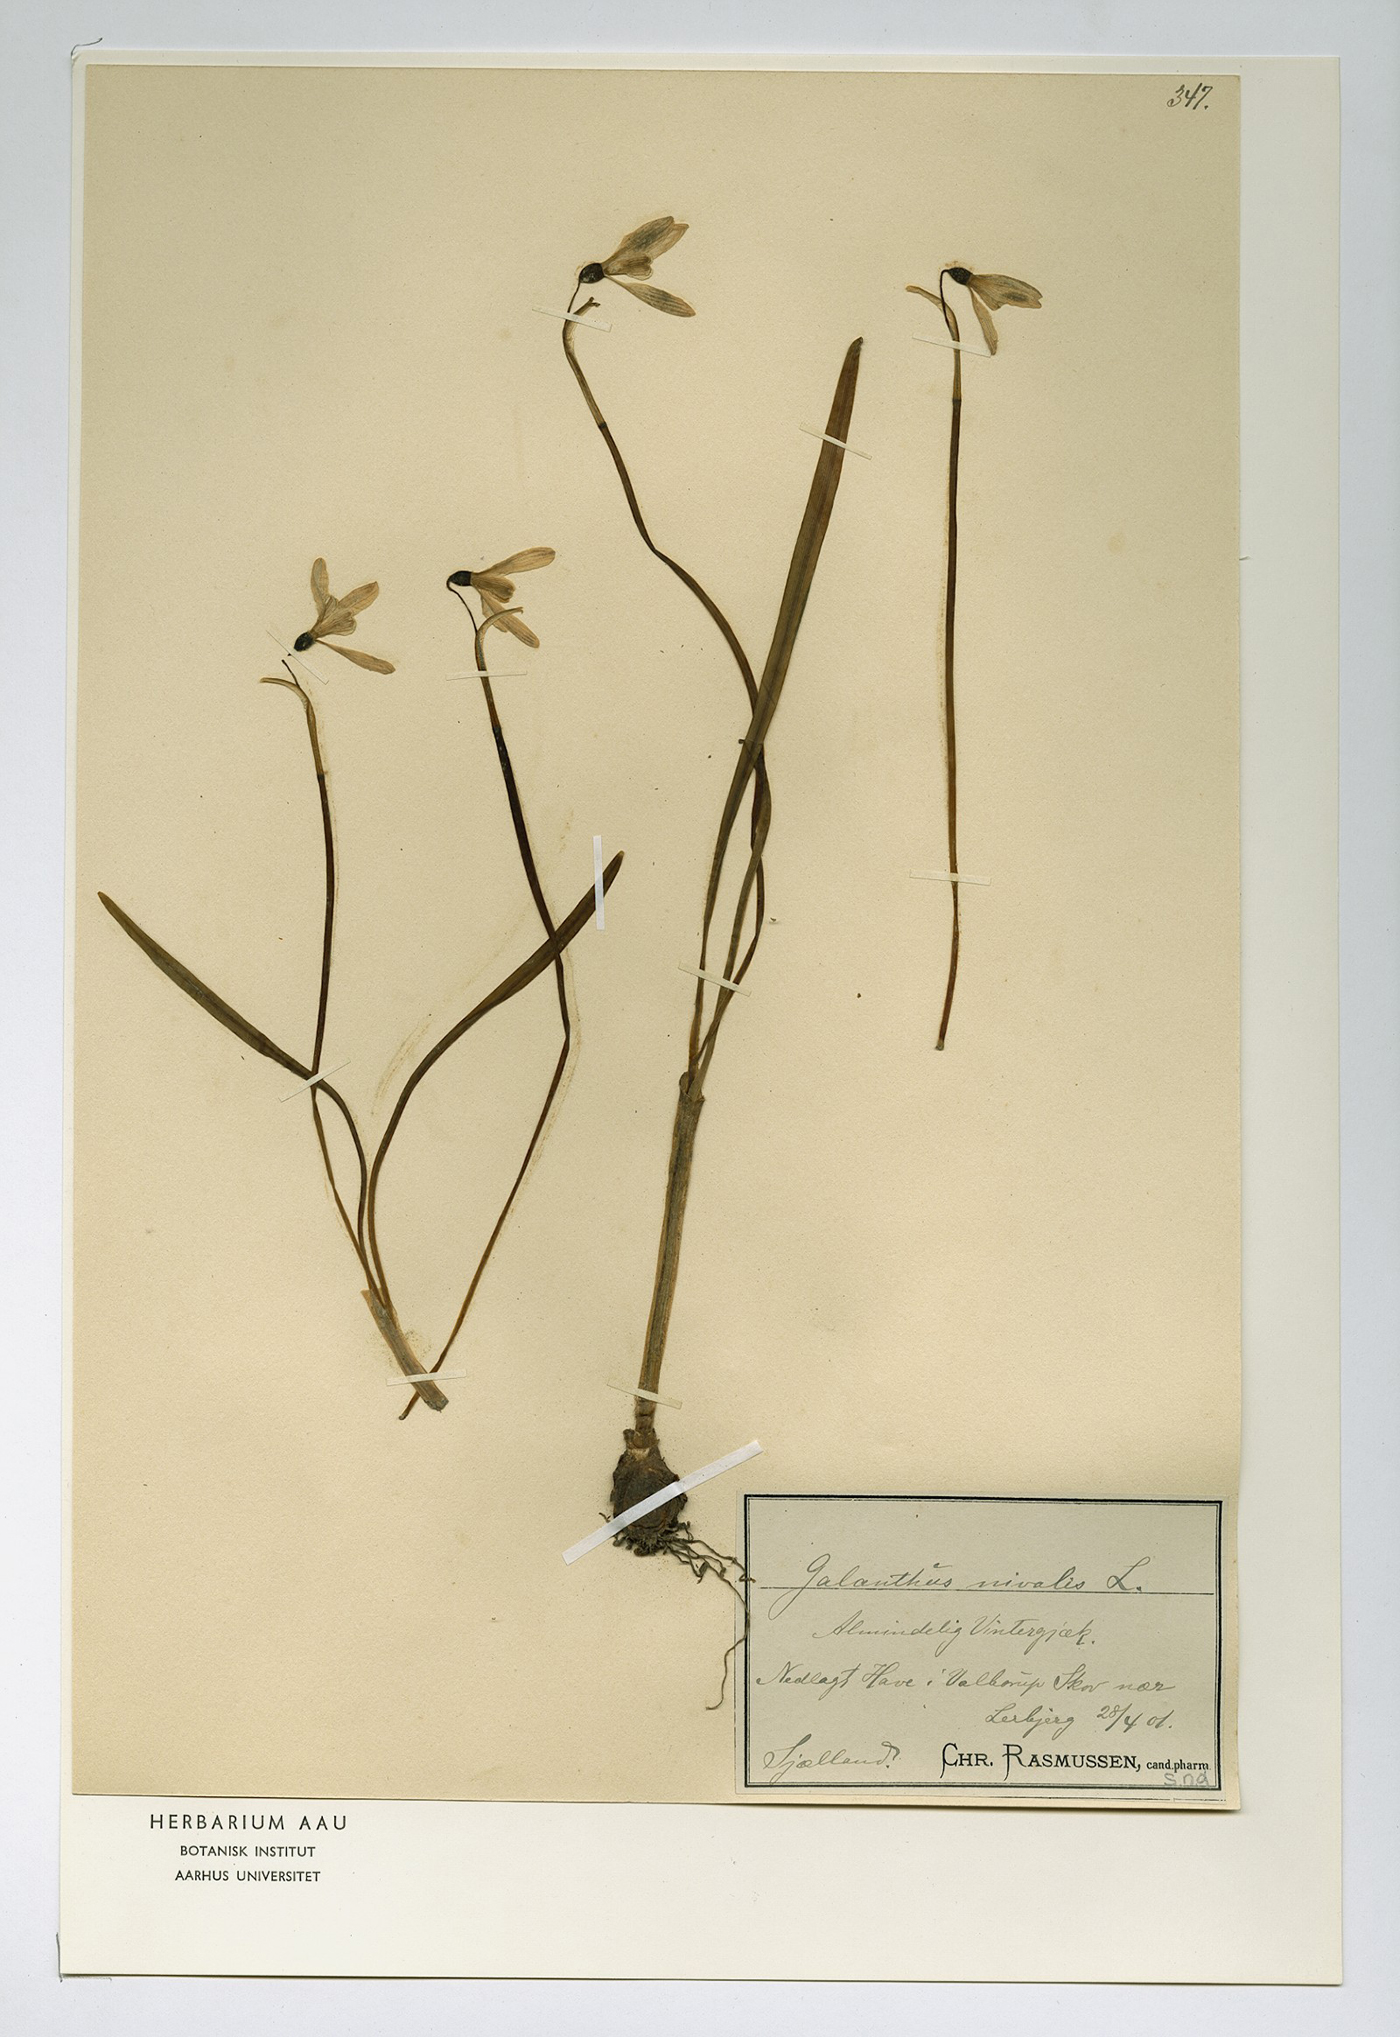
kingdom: Plantae
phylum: Tracheophyta
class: Liliopsida
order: Asparagales
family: Amaryllidaceae
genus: Galanthus
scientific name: Galanthus nivalis
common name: Snowdrop
